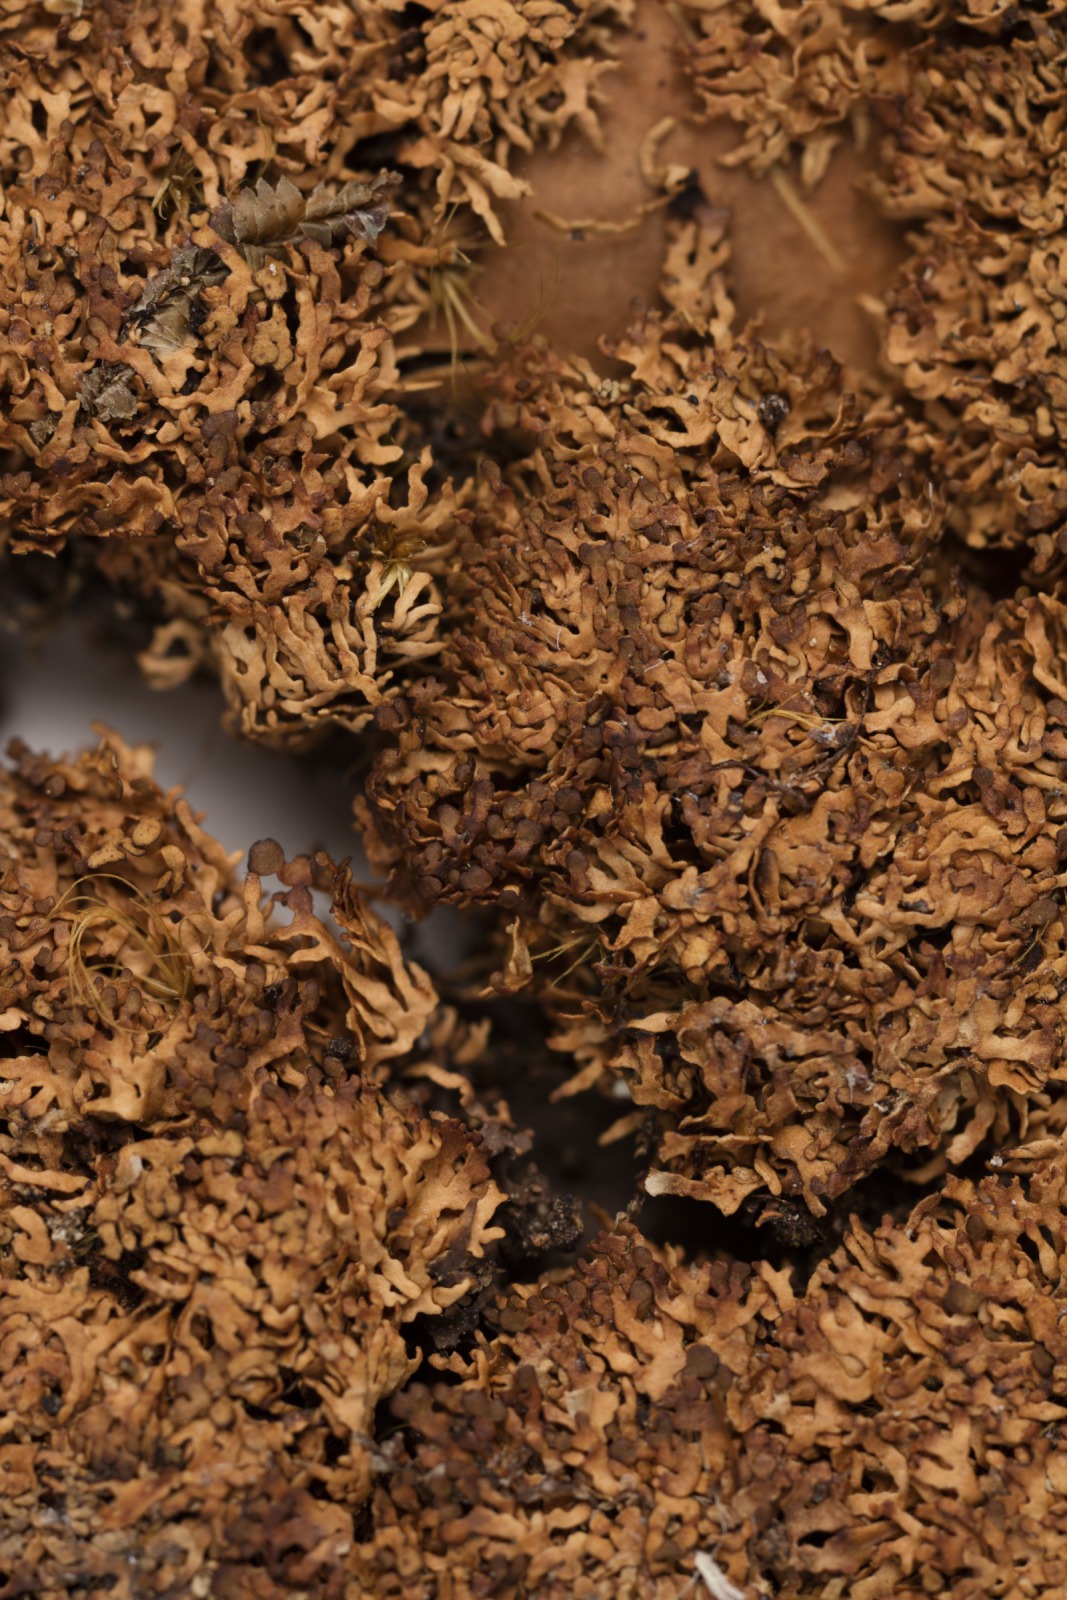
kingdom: Fungi
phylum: Ascomycota
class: Lecanoromycetes
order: Peltigerales
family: Lobariaceae
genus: Sticta
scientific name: Sticta babingtonii
